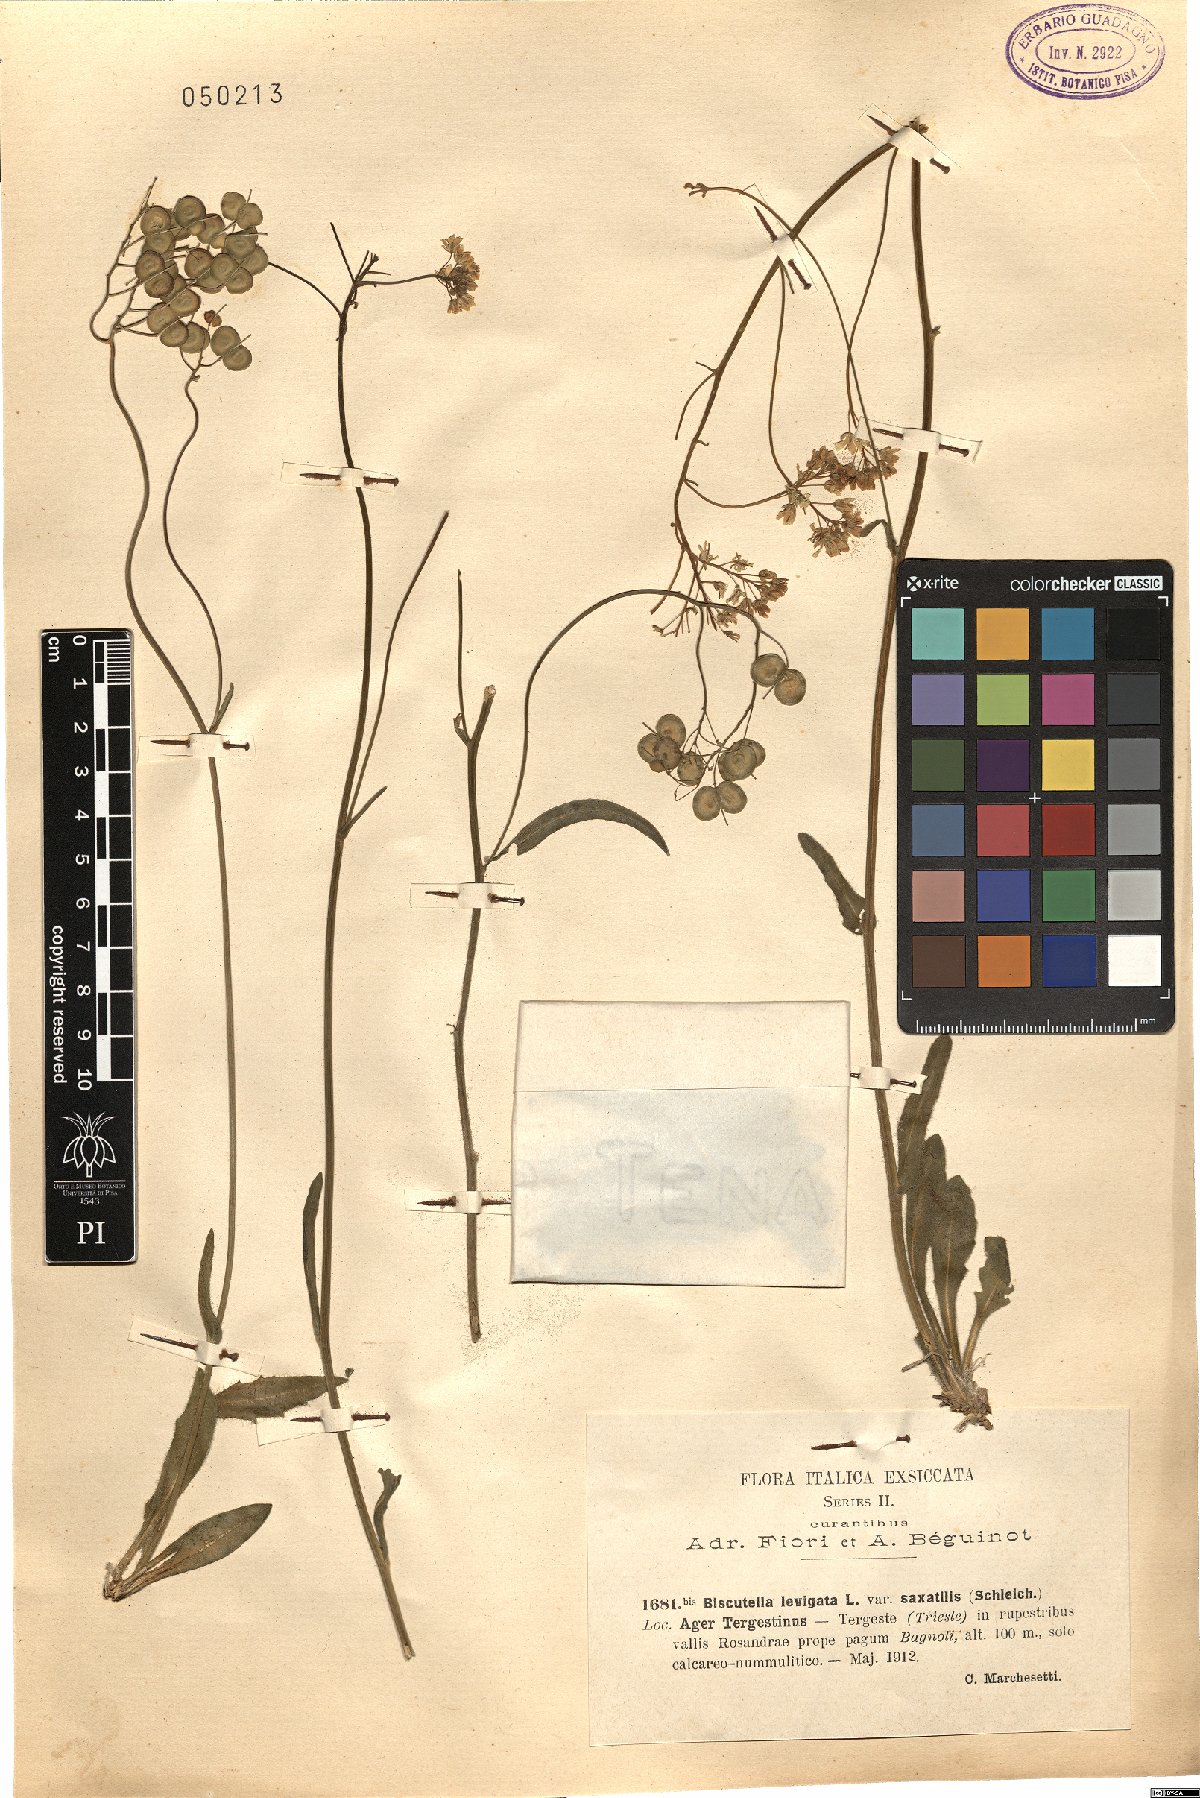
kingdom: Plantae
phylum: Tracheophyta
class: Magnoliopsida
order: Brassicales
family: Brassicaceae
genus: Biscutella
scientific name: Biscutella laevigata
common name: Buckler mustard
